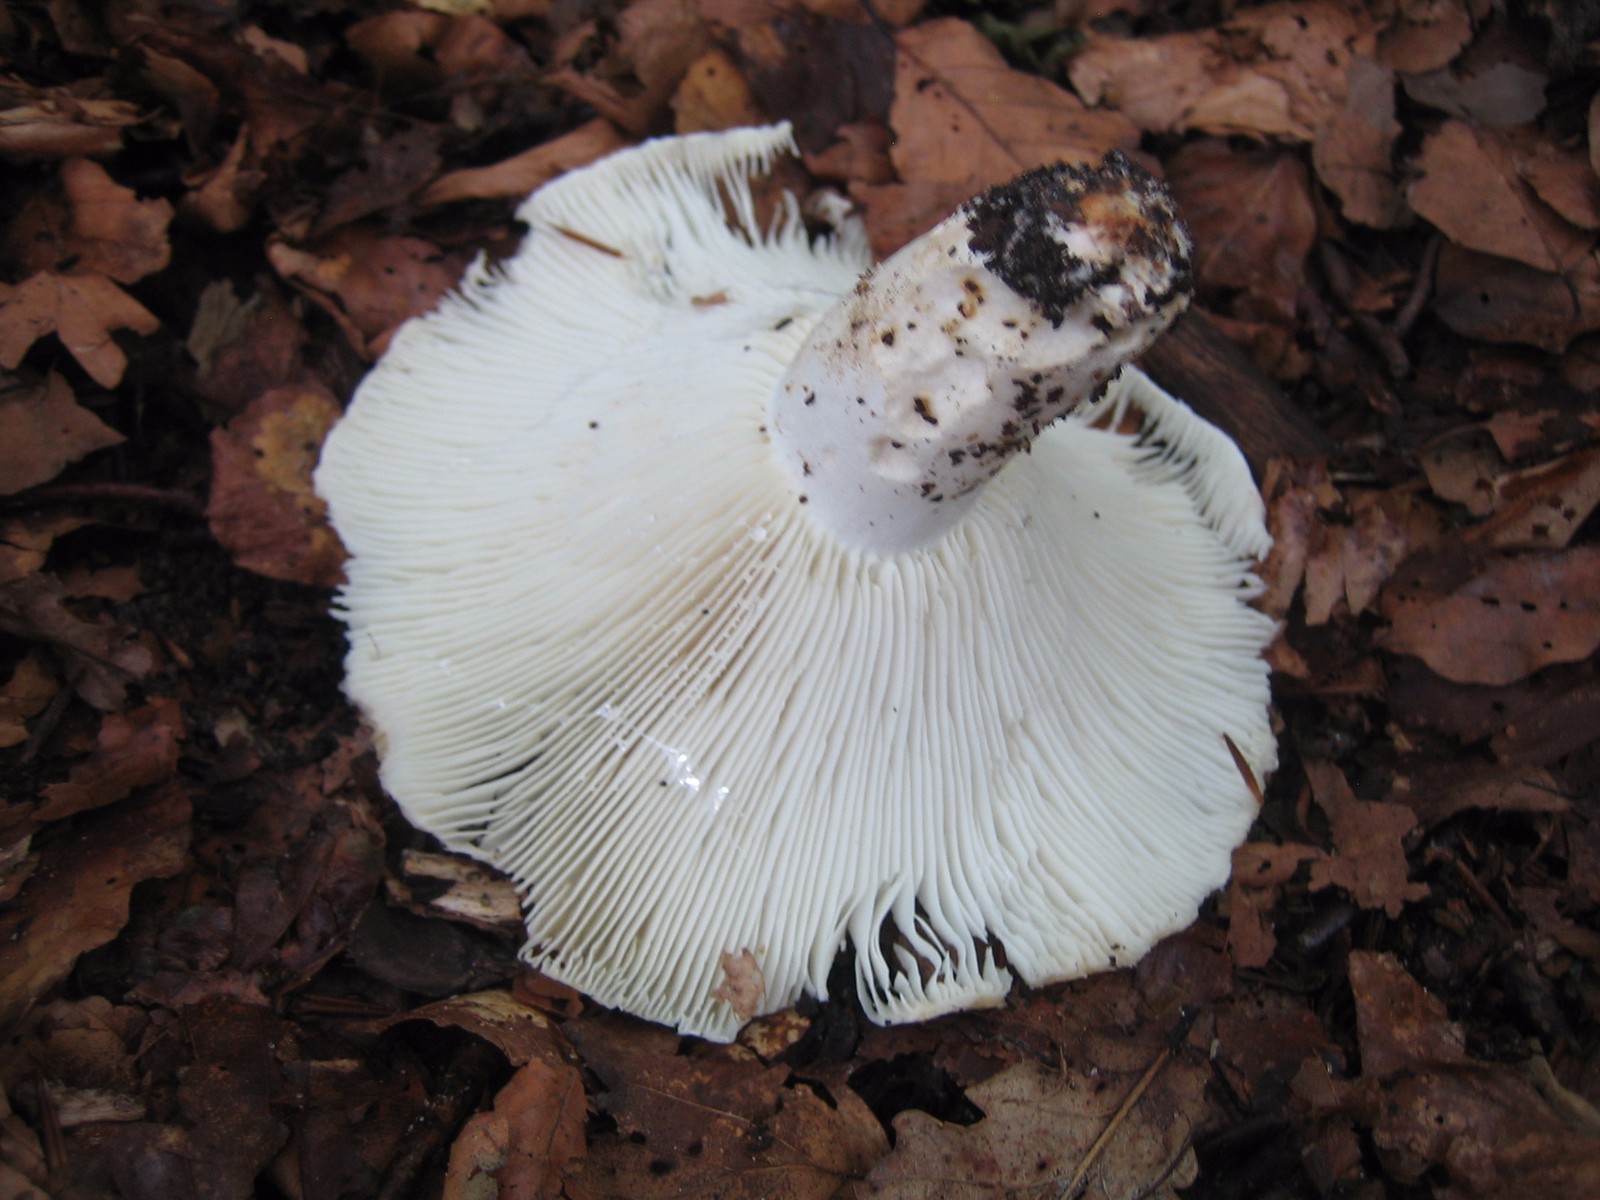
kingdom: Fungi
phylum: Basidiomycota
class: Agaricomycetes
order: Russulales
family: Russulaceae
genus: Russula
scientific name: Russula delica
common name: almindelig tragt-skørhat
